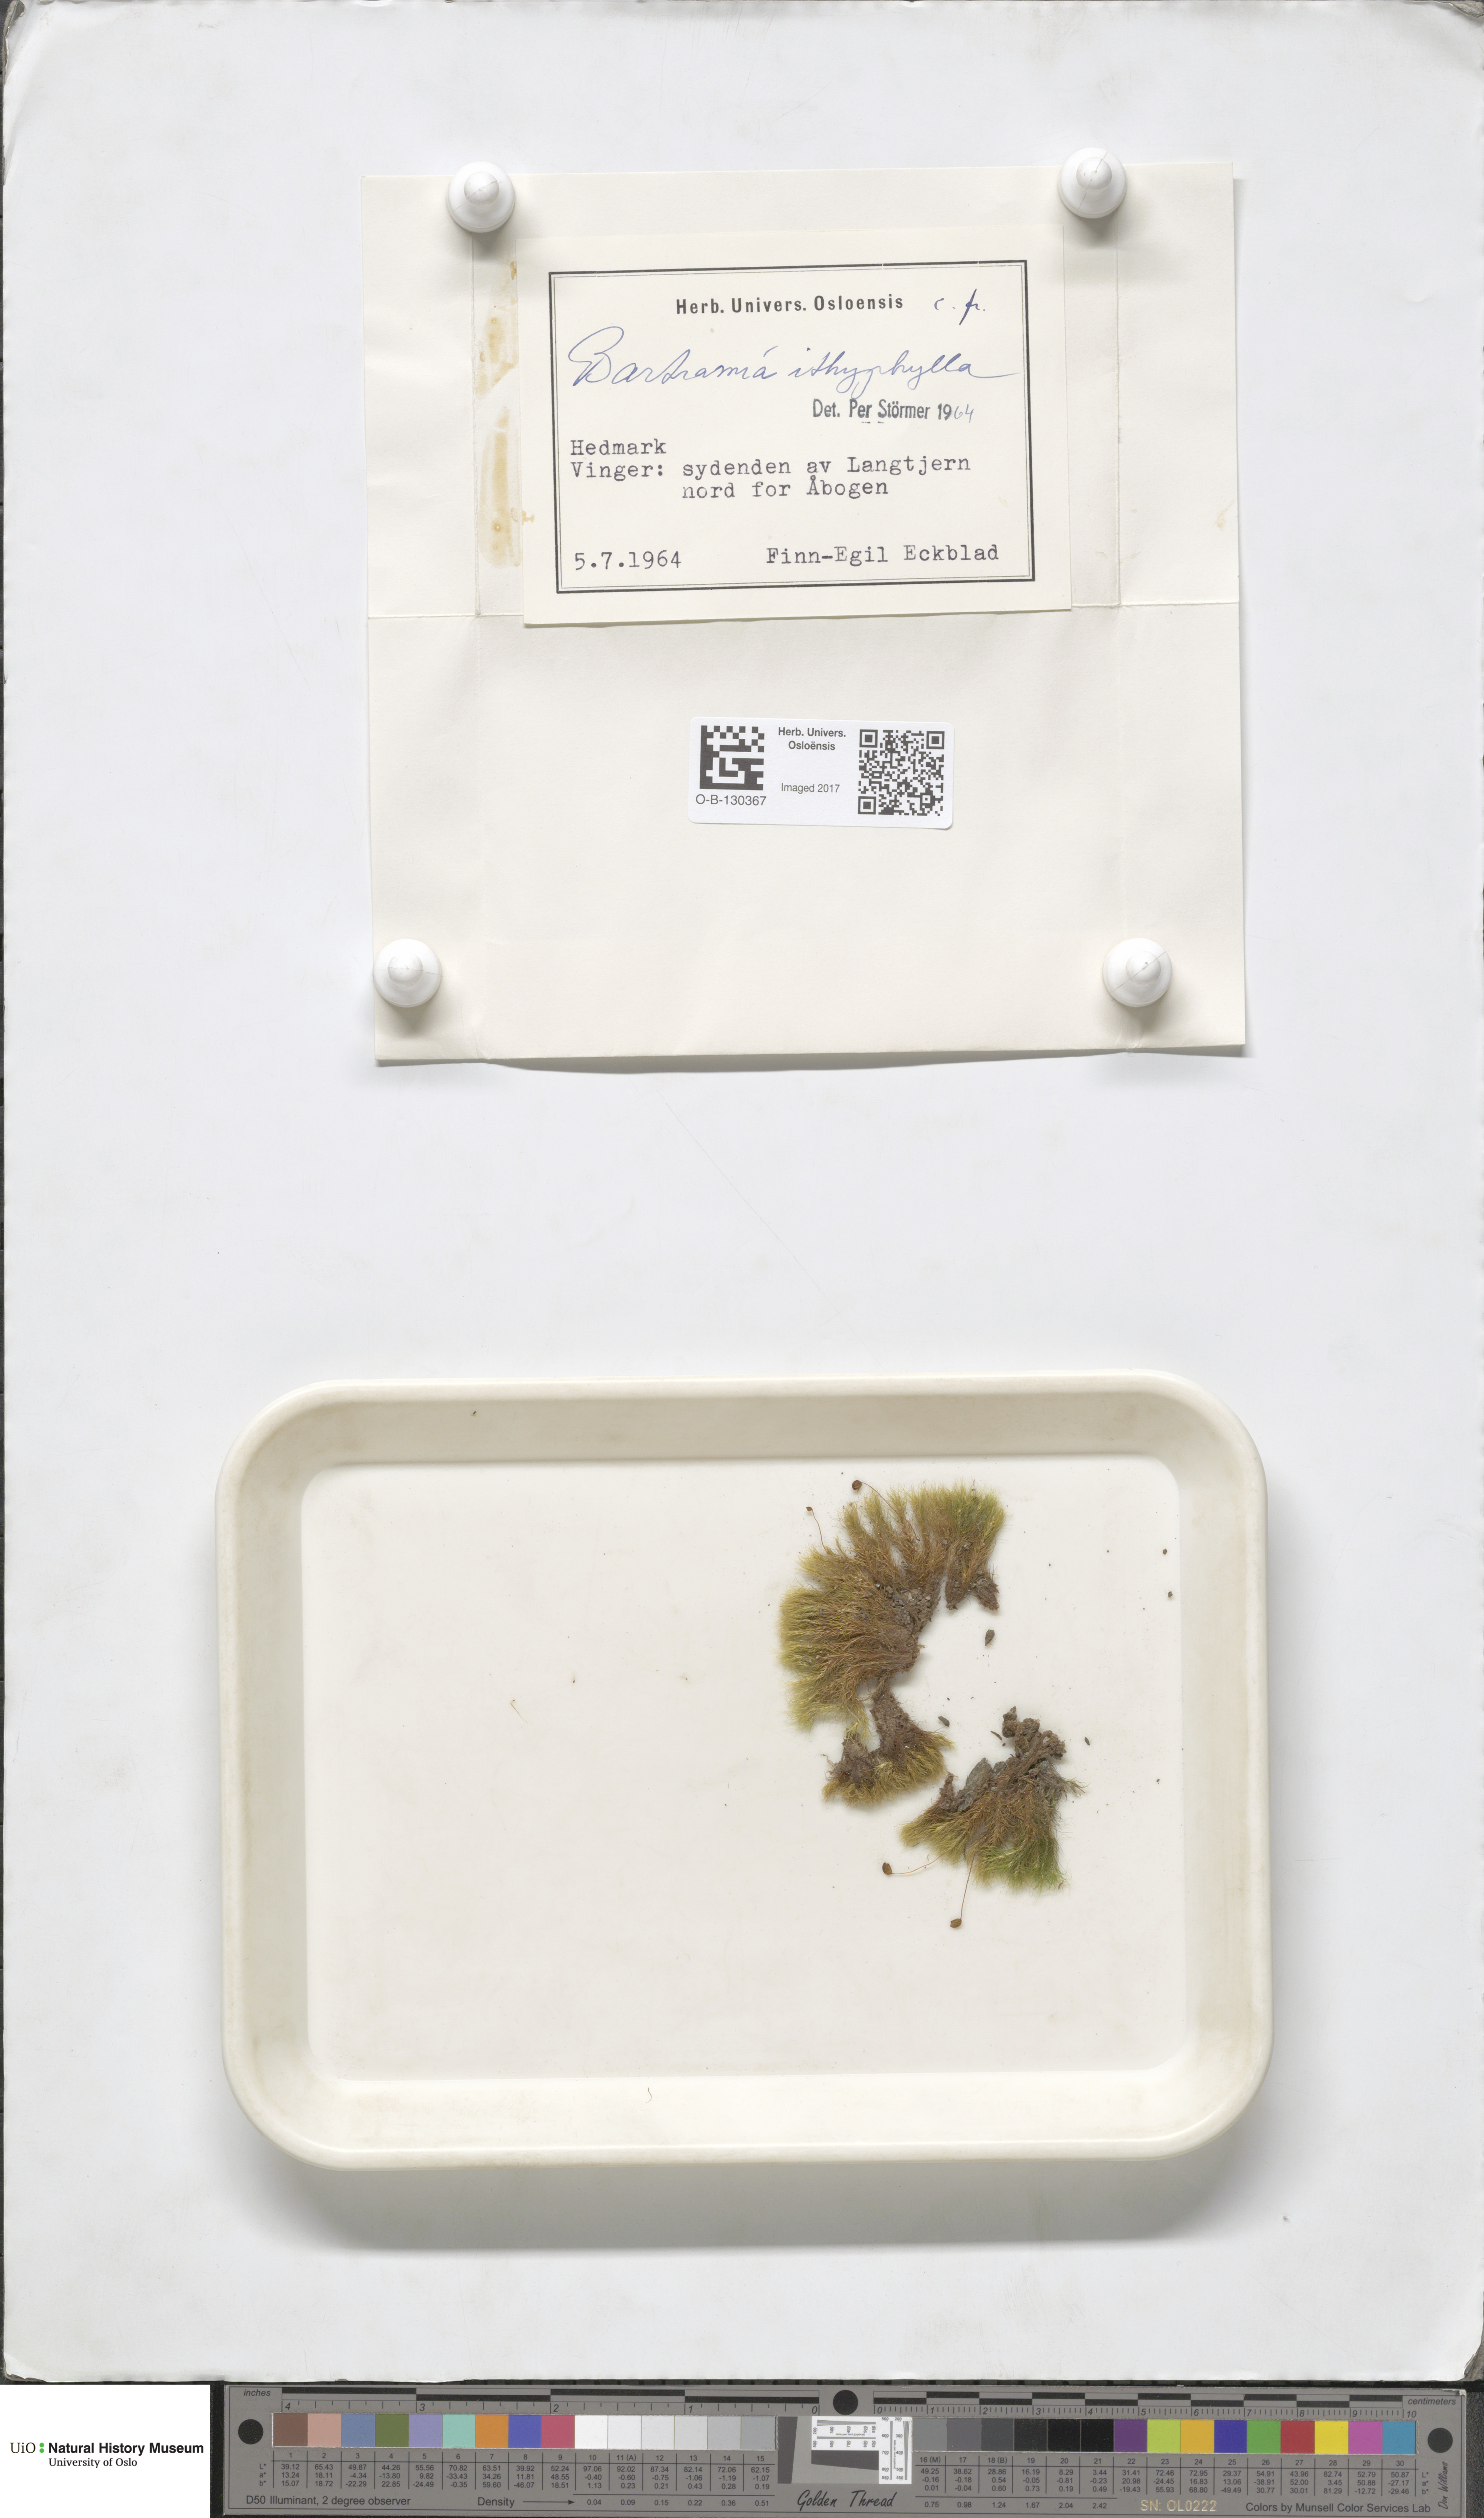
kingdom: Plantae
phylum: Bryophyta
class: Bryopsida
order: Bartramiales
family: Bartramiaceae
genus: Bartramia
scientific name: Bartramia ithyphylla
